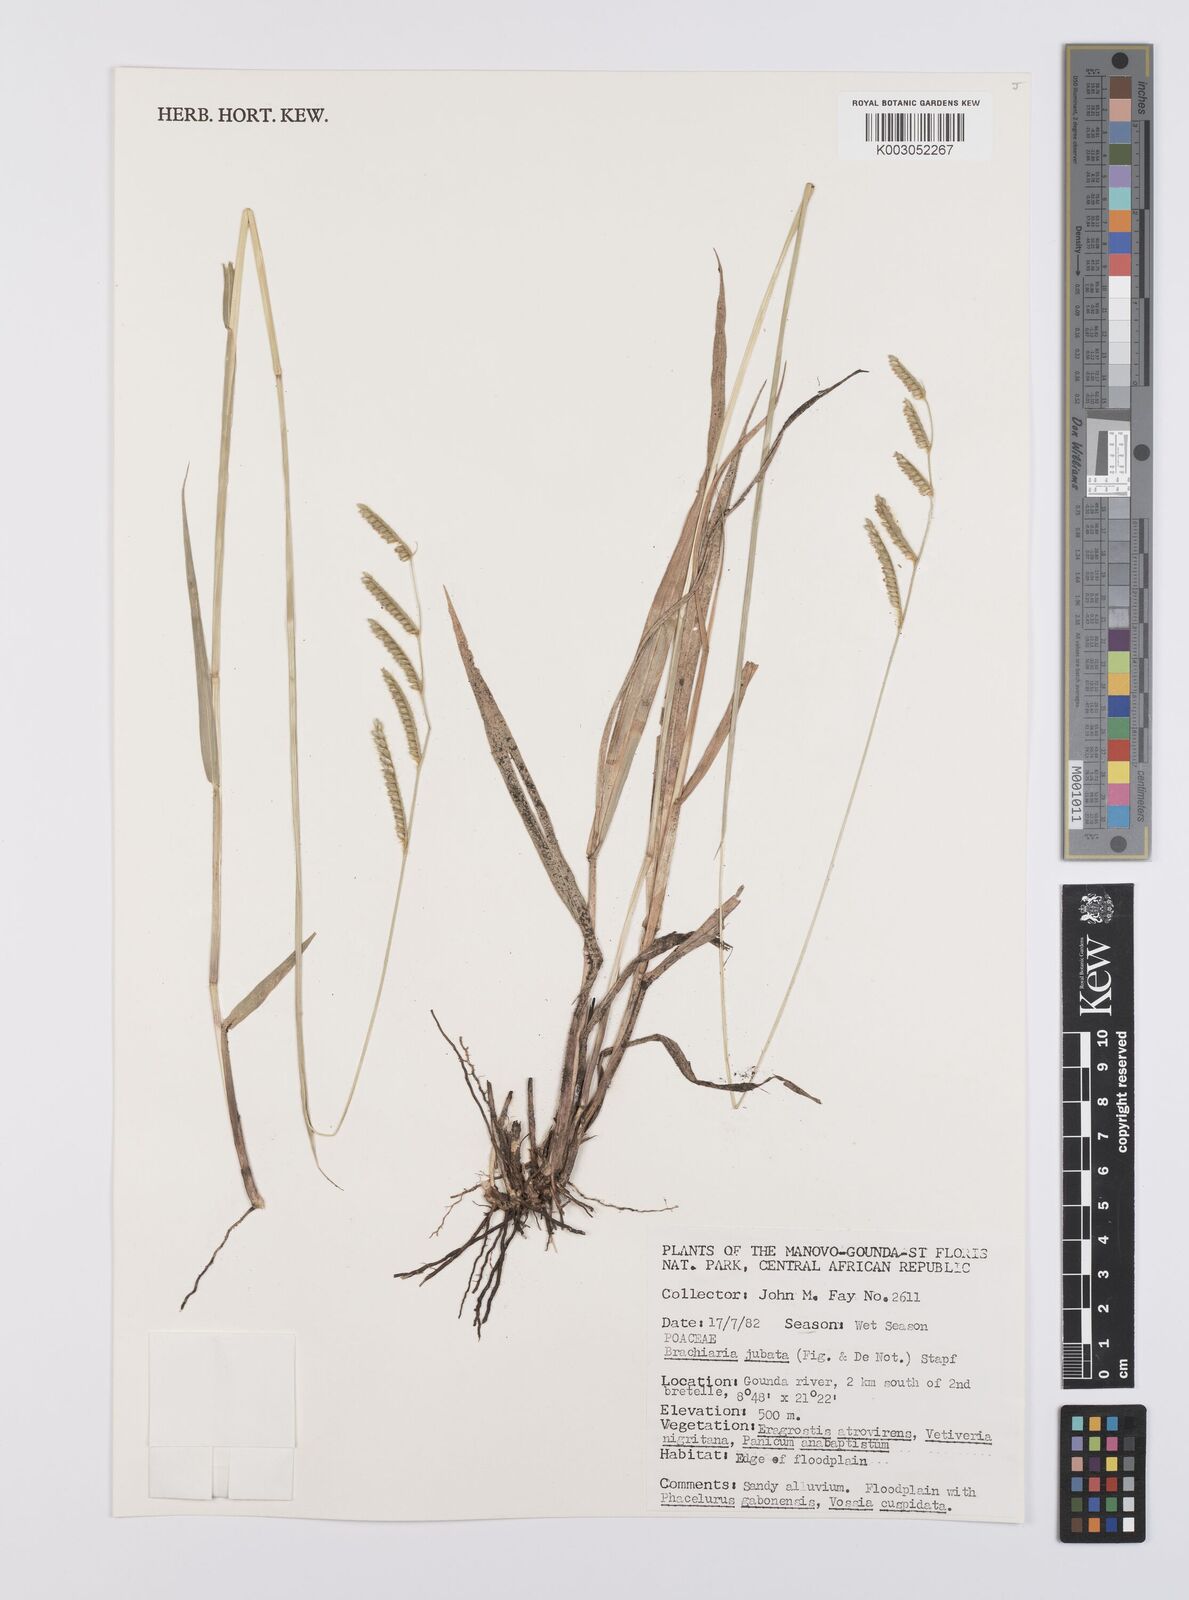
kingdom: Plantae
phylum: Tracheophyta
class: Liliopsida
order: Poales
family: Poaceae
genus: Urochloa
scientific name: Urochloa jubata
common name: Buffalograss
